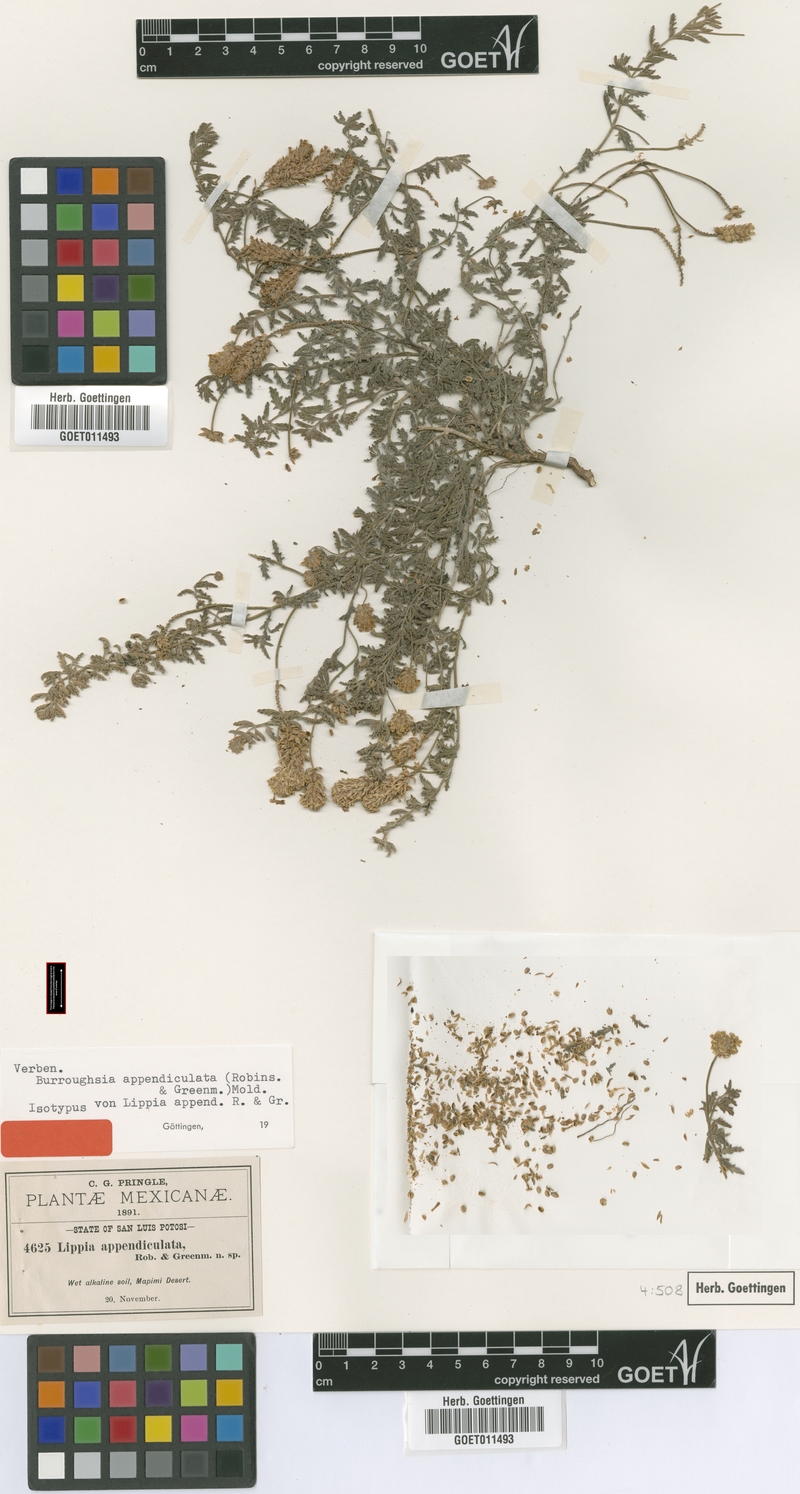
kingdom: Plantae
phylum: Tracheophyta
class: Magnoliopsida
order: Lamiales
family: Verbenaceae
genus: Lippia
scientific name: Lippia appendiculata
